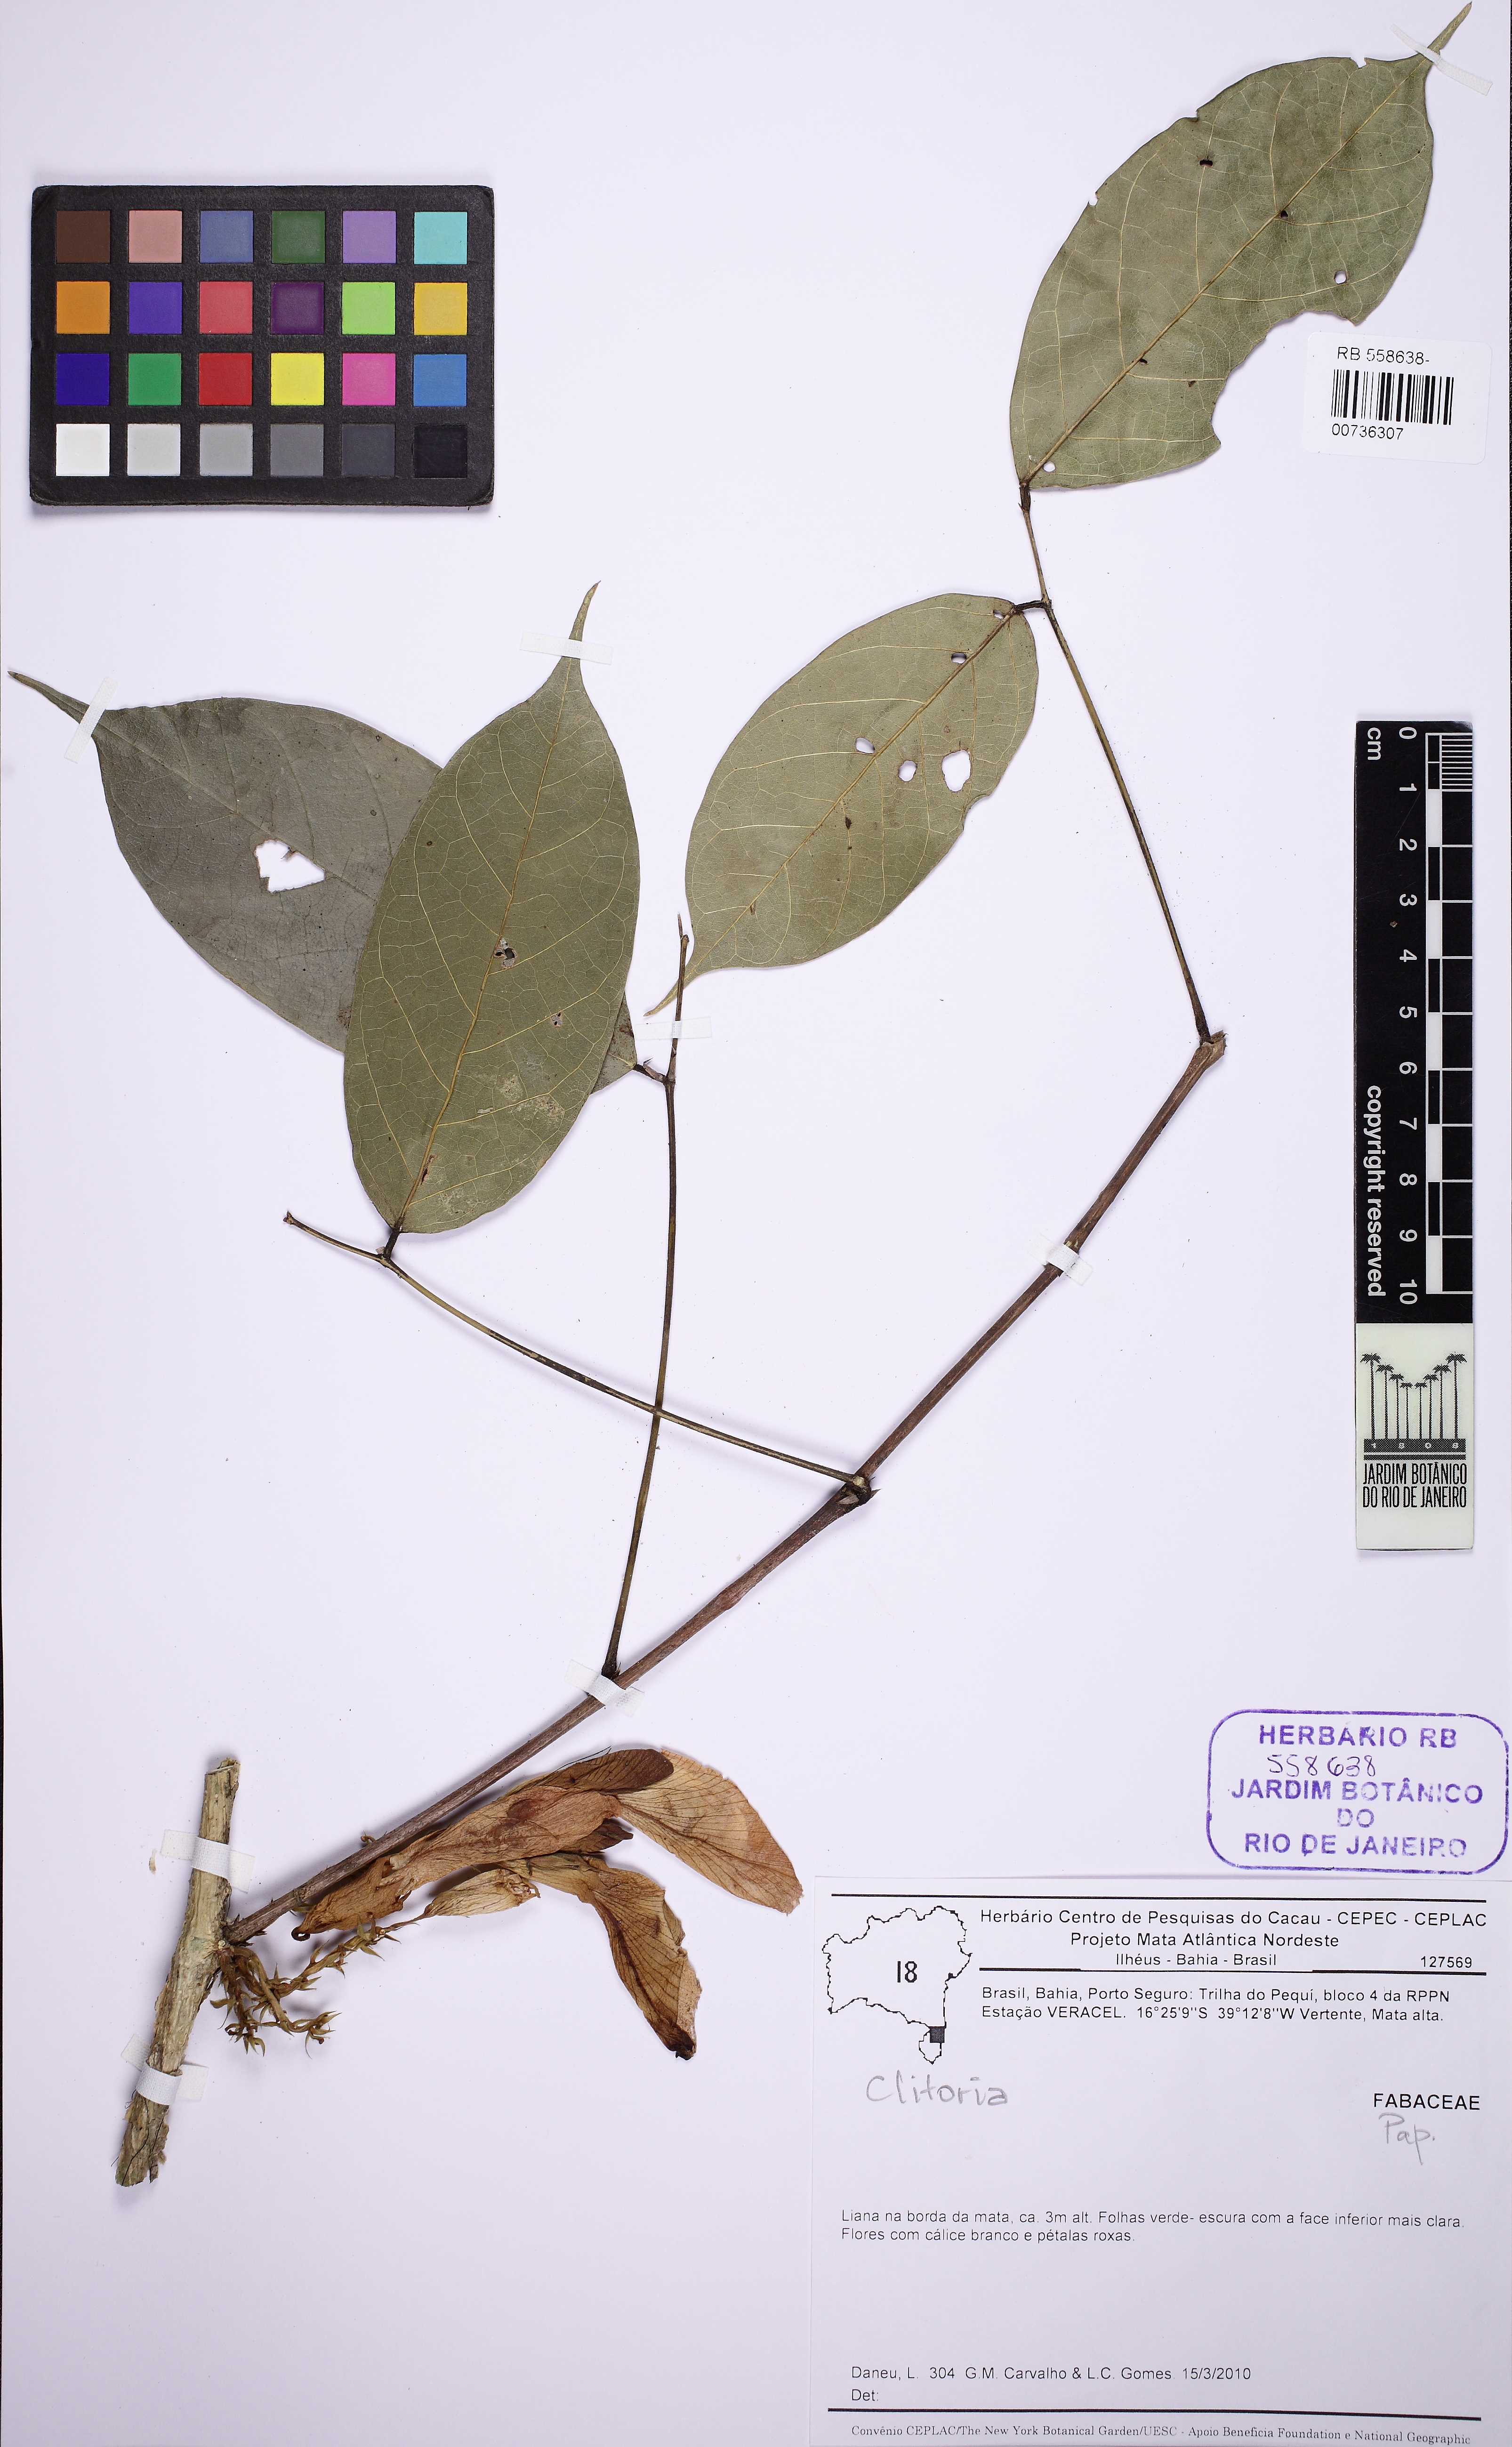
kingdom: Plantae
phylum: Tracheophyta
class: Magnoliopsida
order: Fabales
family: Fabaceae
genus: Clitoria
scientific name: Clitoria
